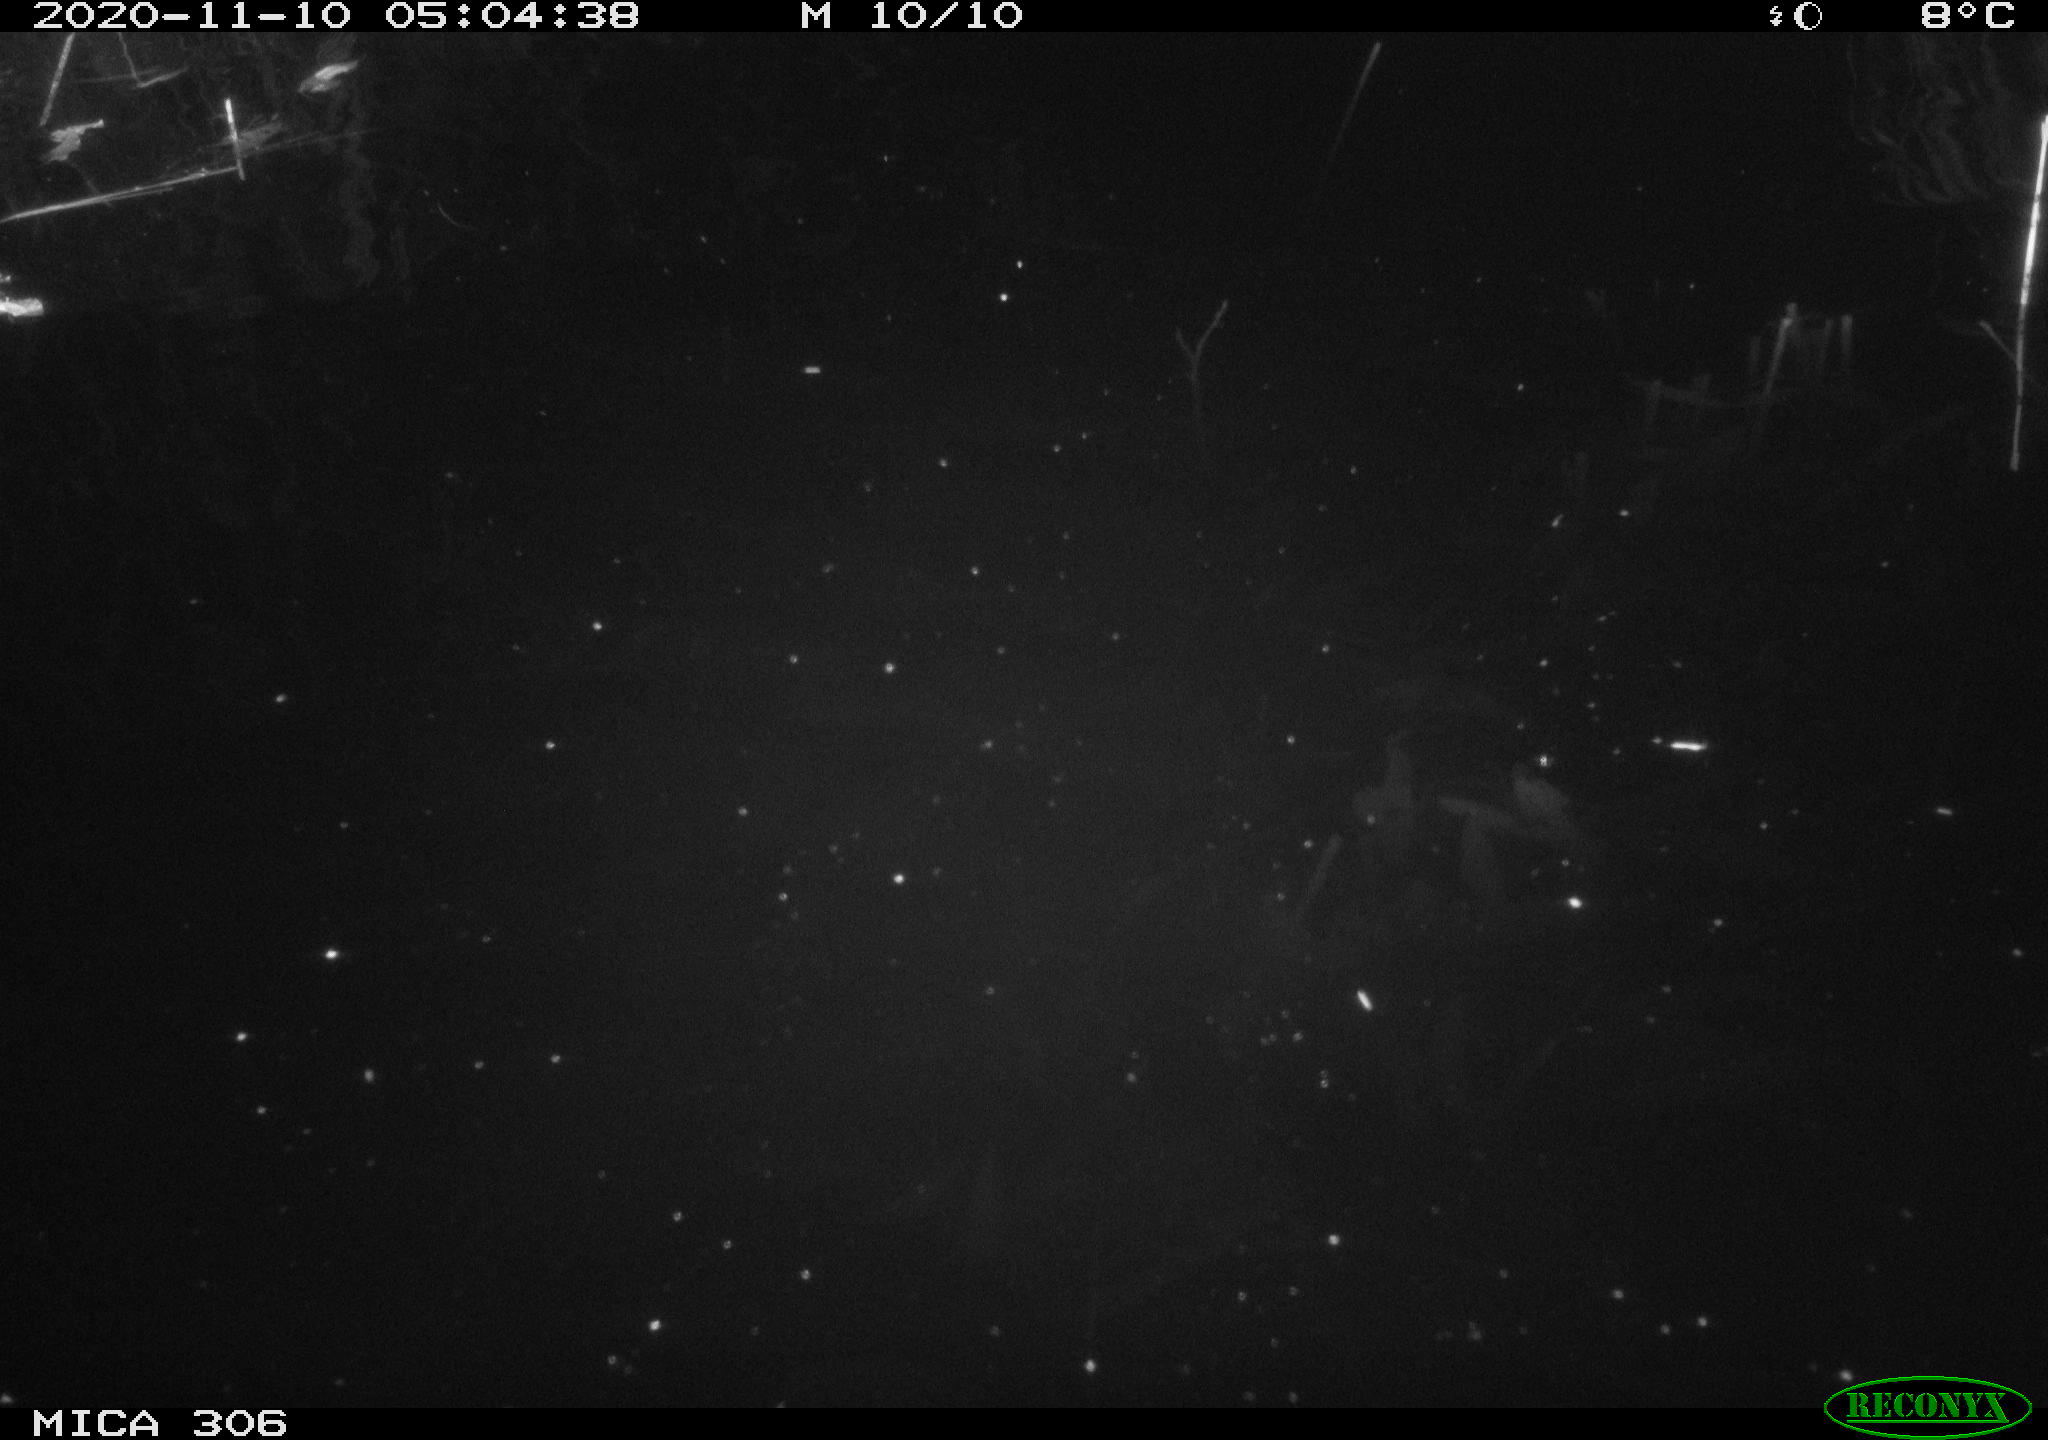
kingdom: Animalia
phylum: Chordata
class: Mammalia
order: Rodentia
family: Cricetidae
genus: Ondatra
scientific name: Ondatra zibethicus
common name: Muskrat
